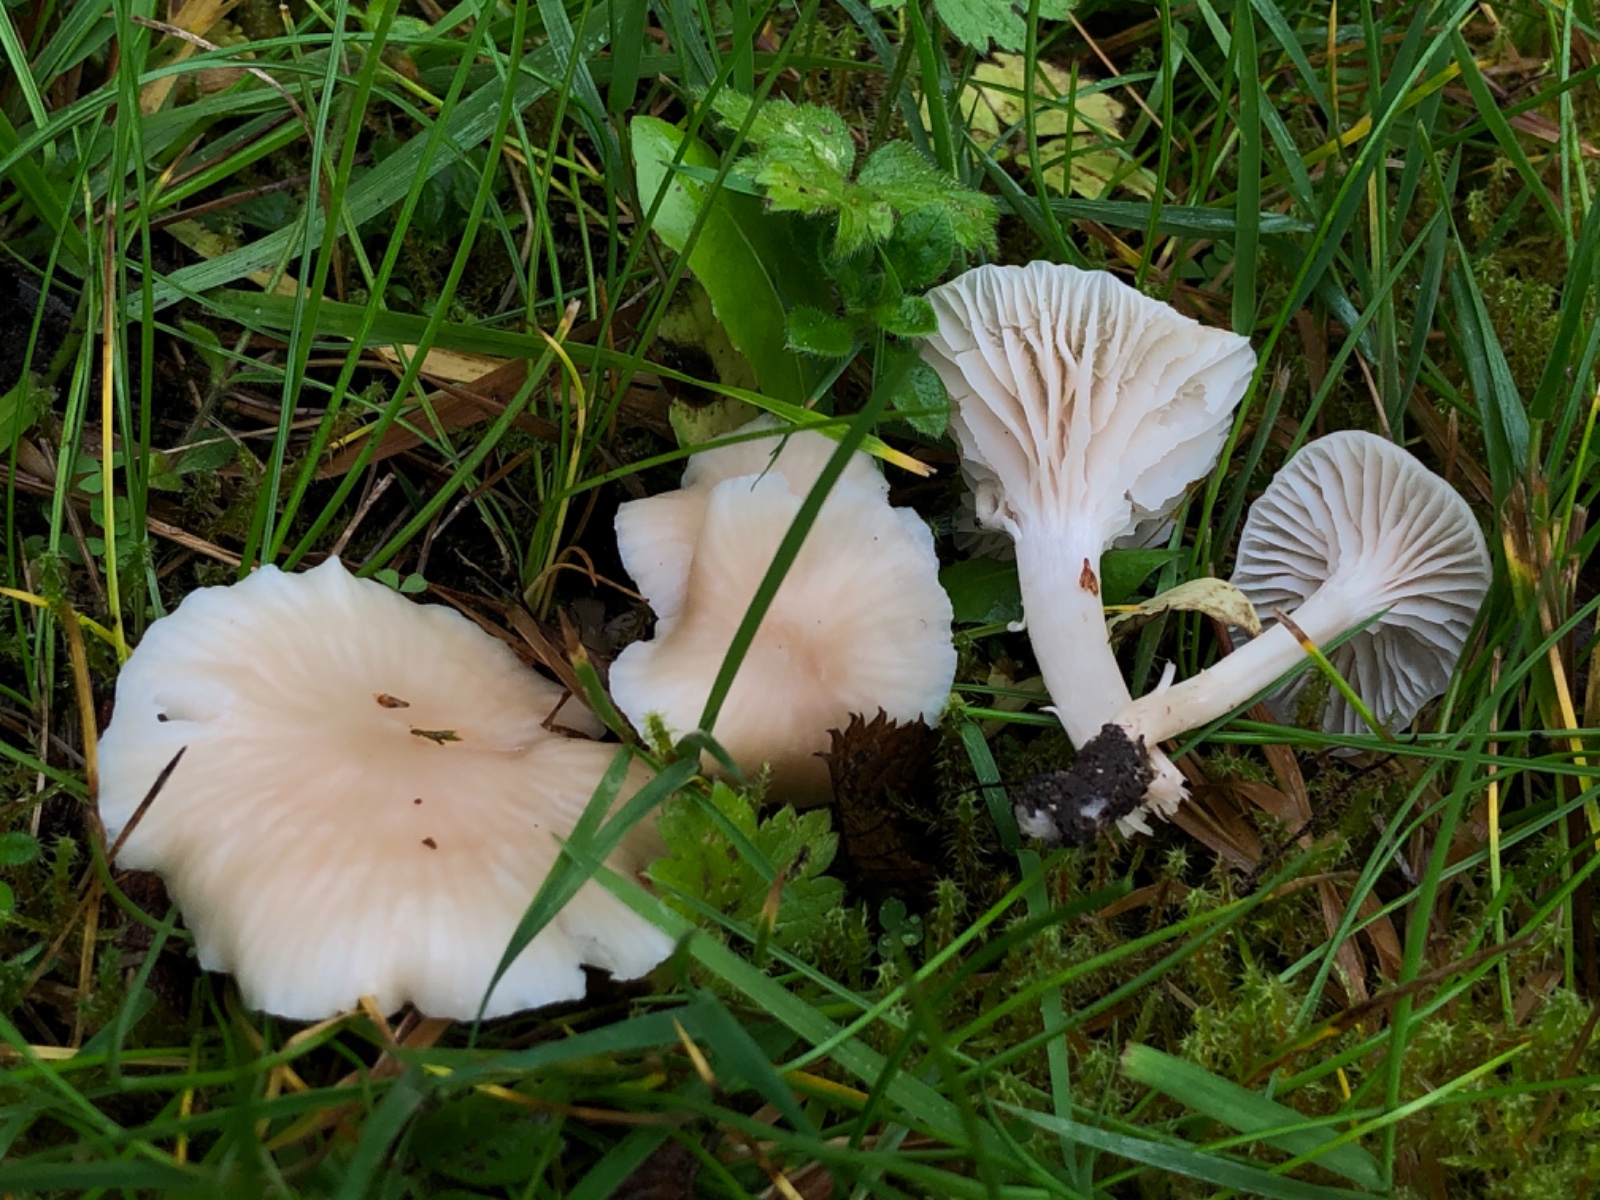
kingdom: Fungi
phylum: Basidiomycota
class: Agaricomycetes
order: Agaricales
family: Hygrophoraceae
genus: Cuphophyllus
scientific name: Cuphophyllus virgineus
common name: isabella-vokshat
